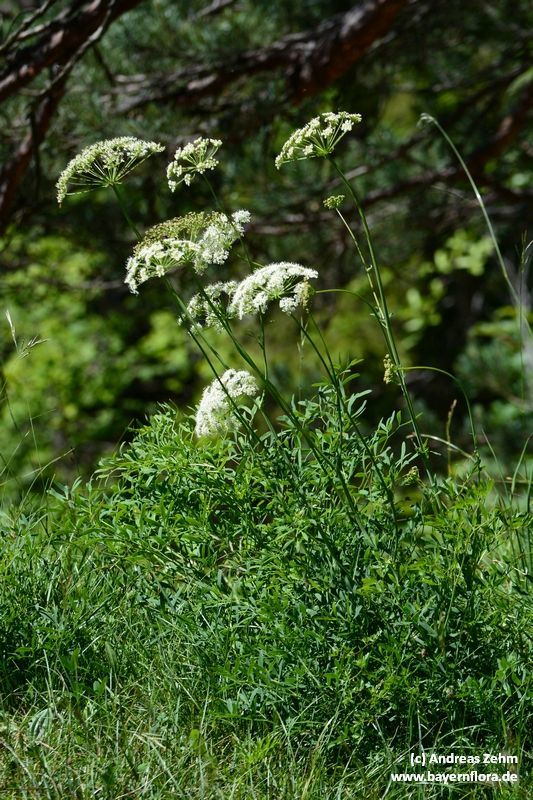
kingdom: Plantae
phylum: Tracheophyta
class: Magnoliopsida
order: Apiales
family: Apiaceae
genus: Siler
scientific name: Siler montanum
